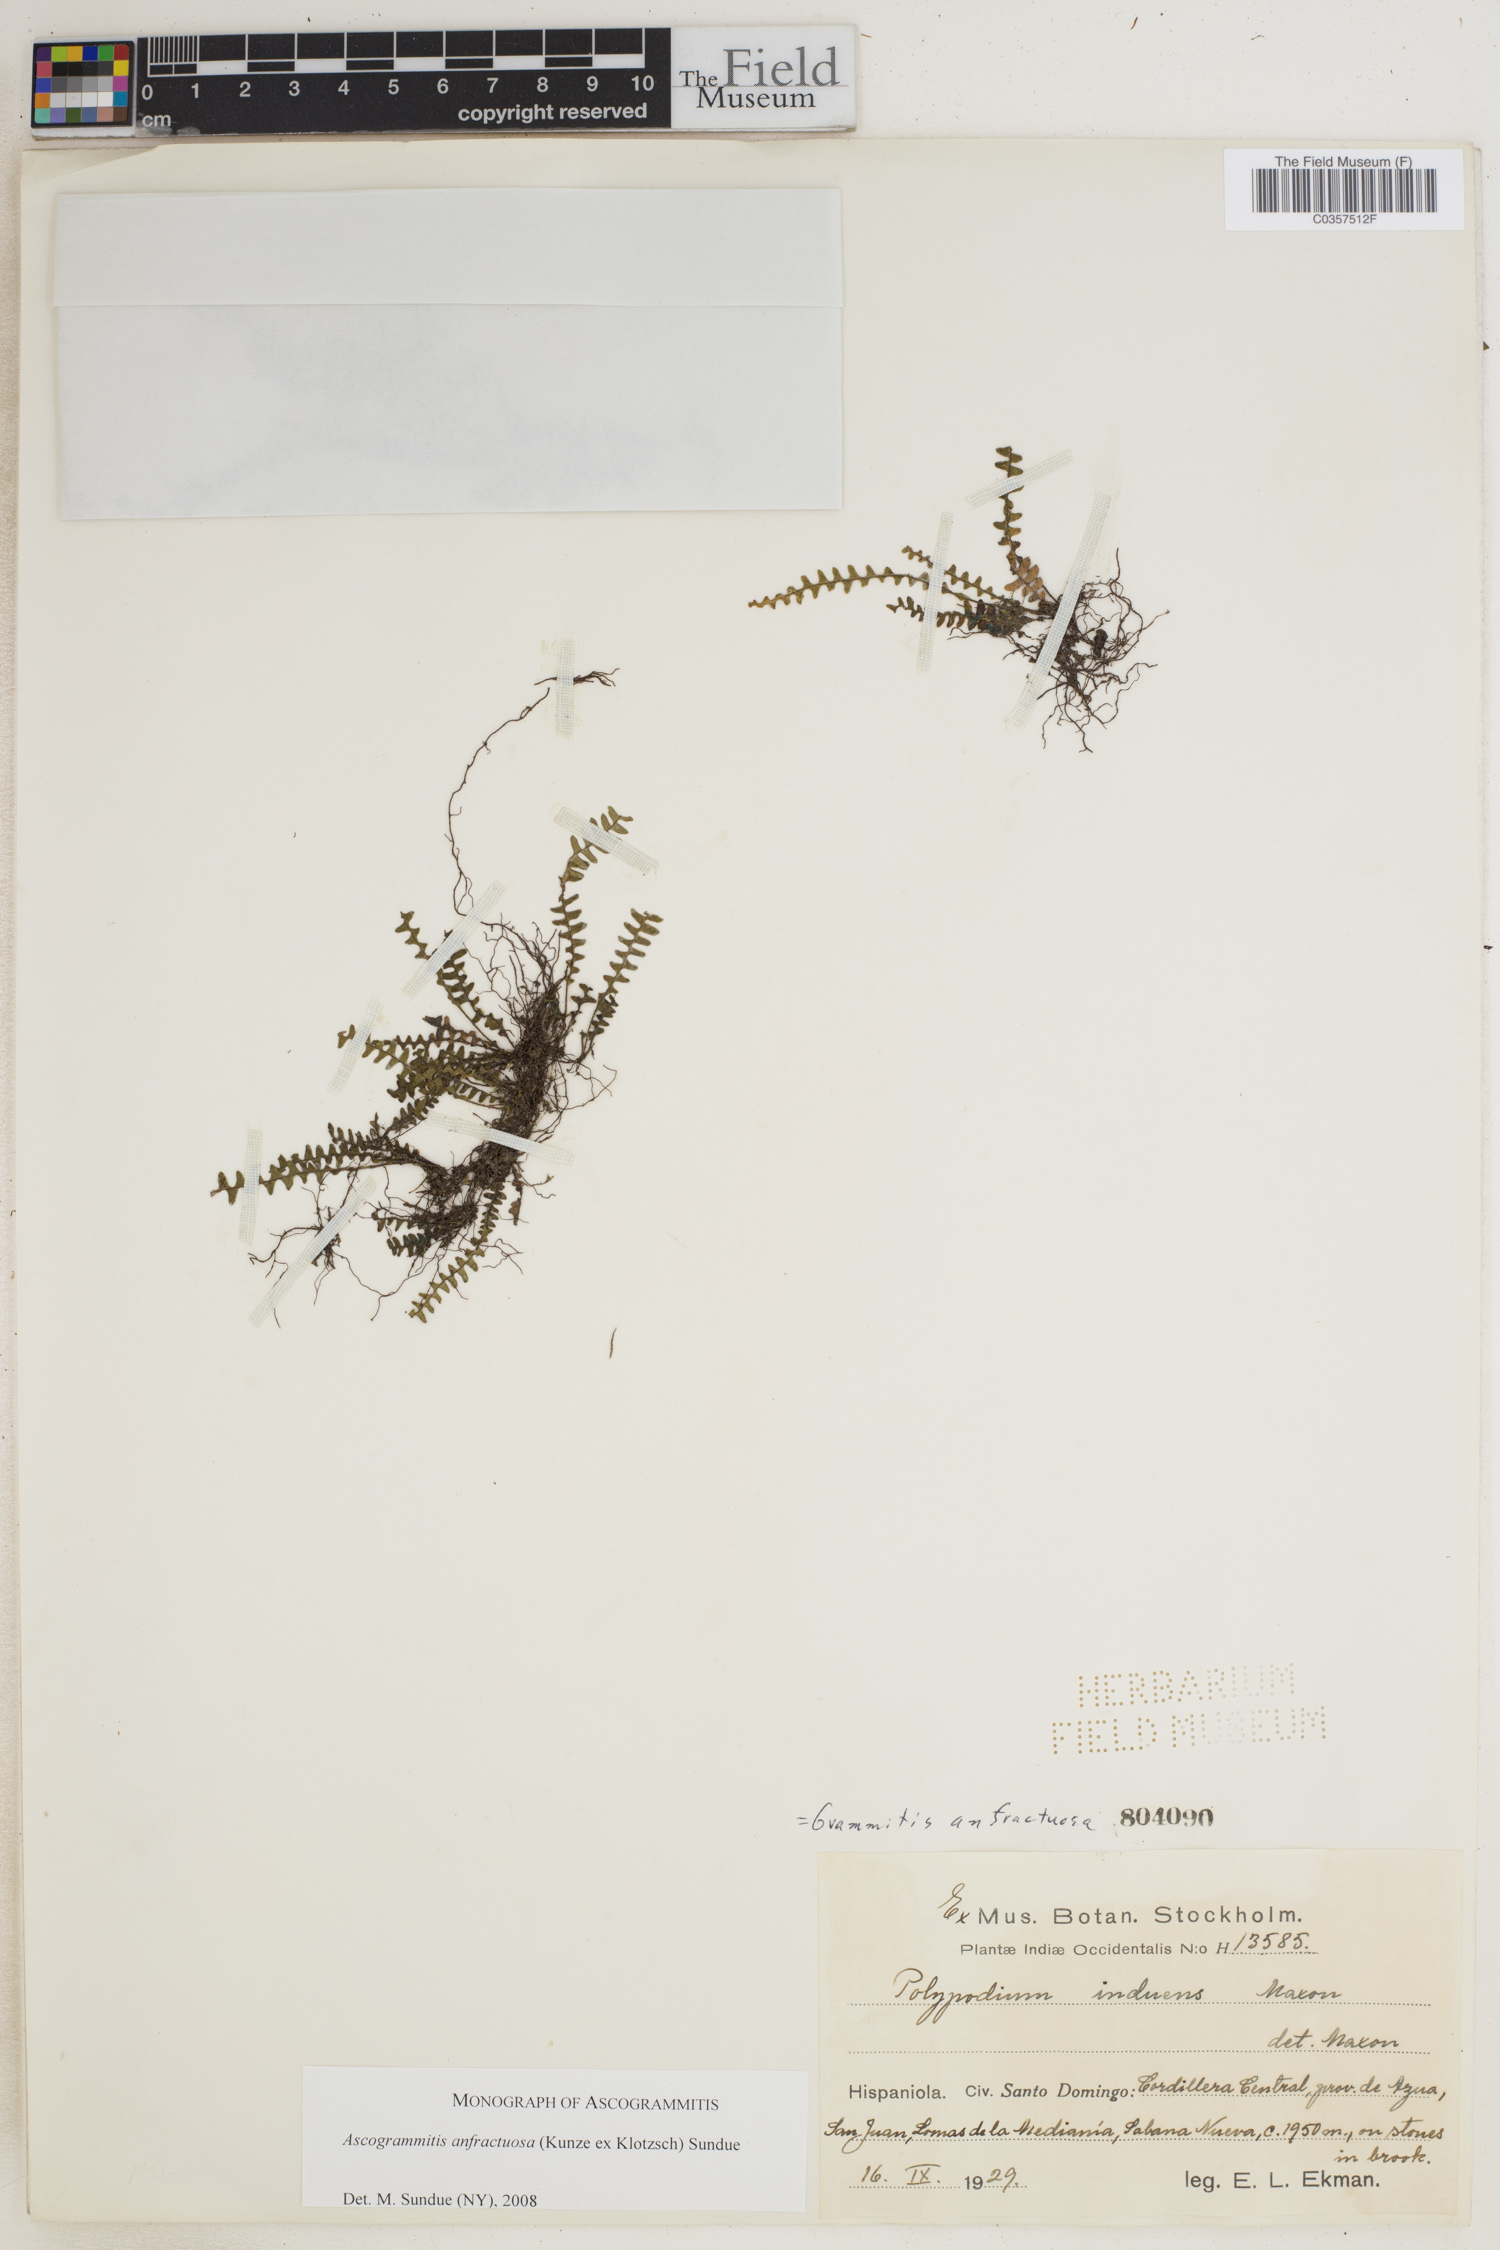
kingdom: Plantae
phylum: Tracheophyta
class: Polypodiopsida
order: Polypodiales
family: Polypodiaceae
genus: Ascogrammitis
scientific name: Ascogrammitis anfractuosa
